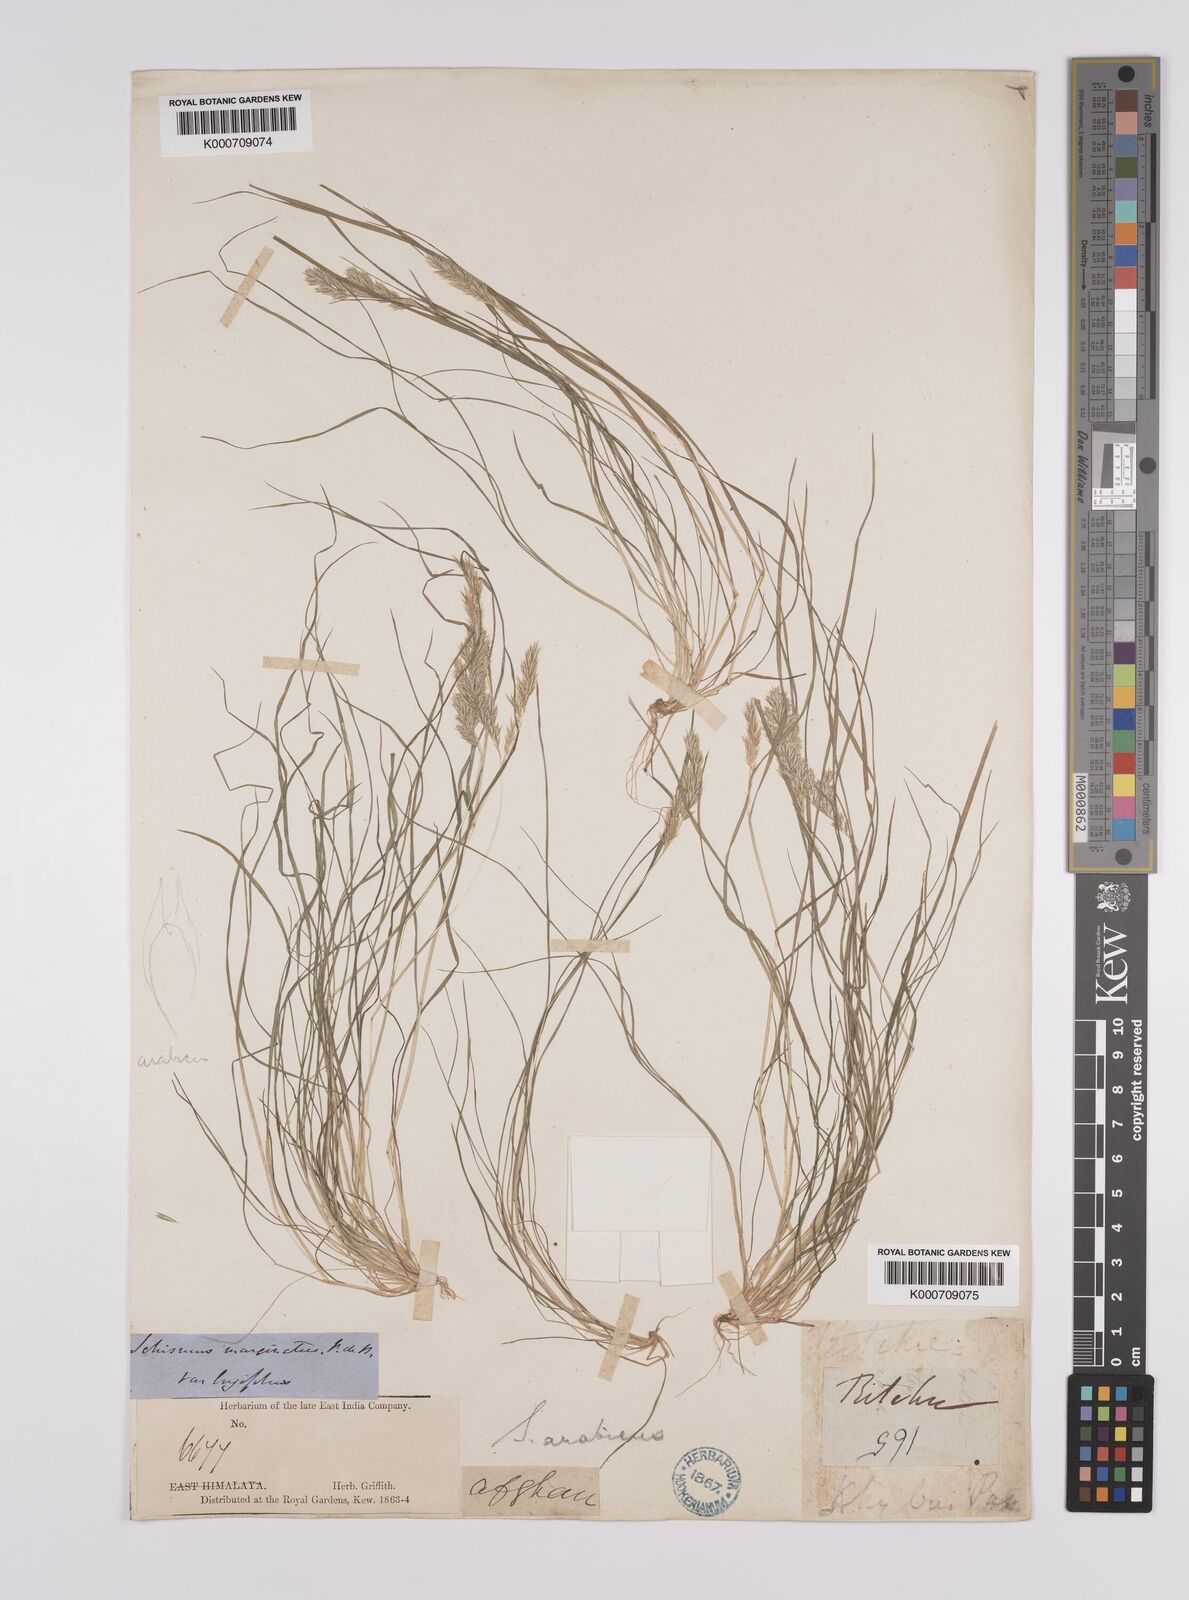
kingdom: Plantae
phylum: Tracheophyta
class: Liliopsida
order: Poales
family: Poaceae
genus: Schismus
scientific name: Schismus arabicus
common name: Arabian schismus
